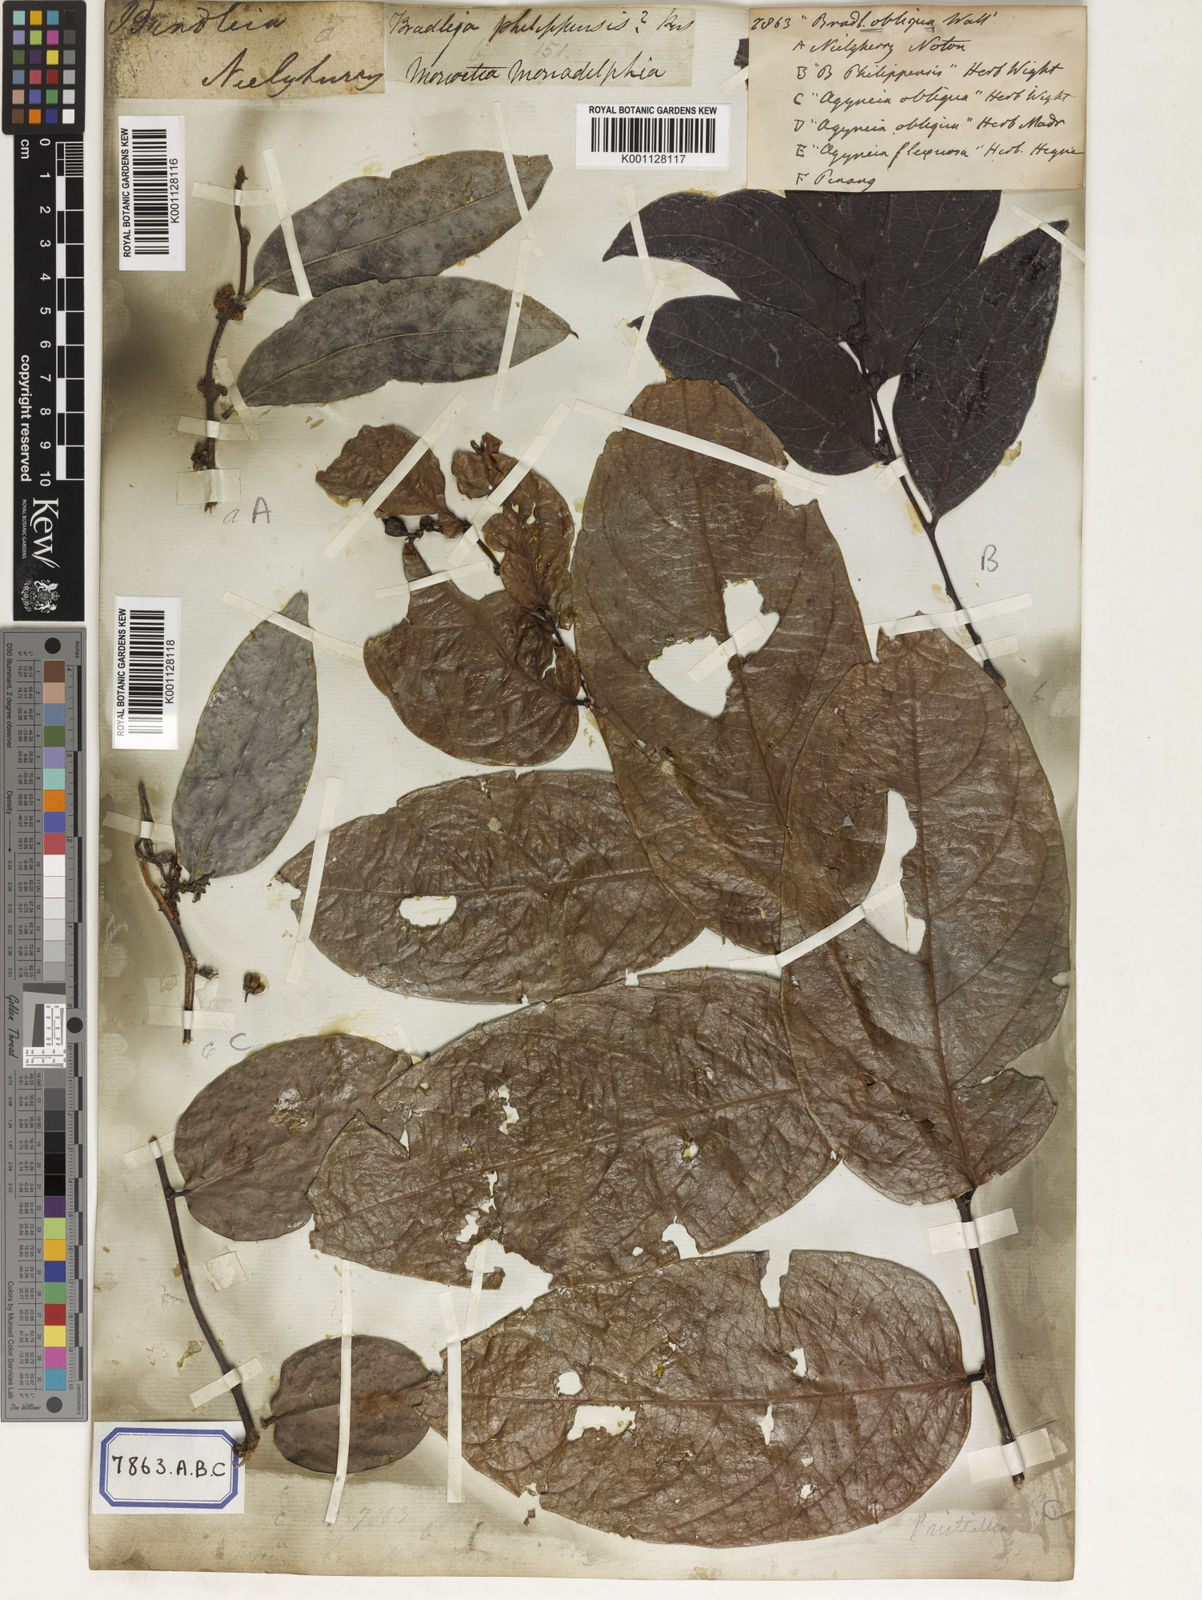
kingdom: Plantae
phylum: Tracheophyta
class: Magnoliopsida
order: Malpighiales
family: Euphorbiaceae
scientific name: Euphorbiaceae
